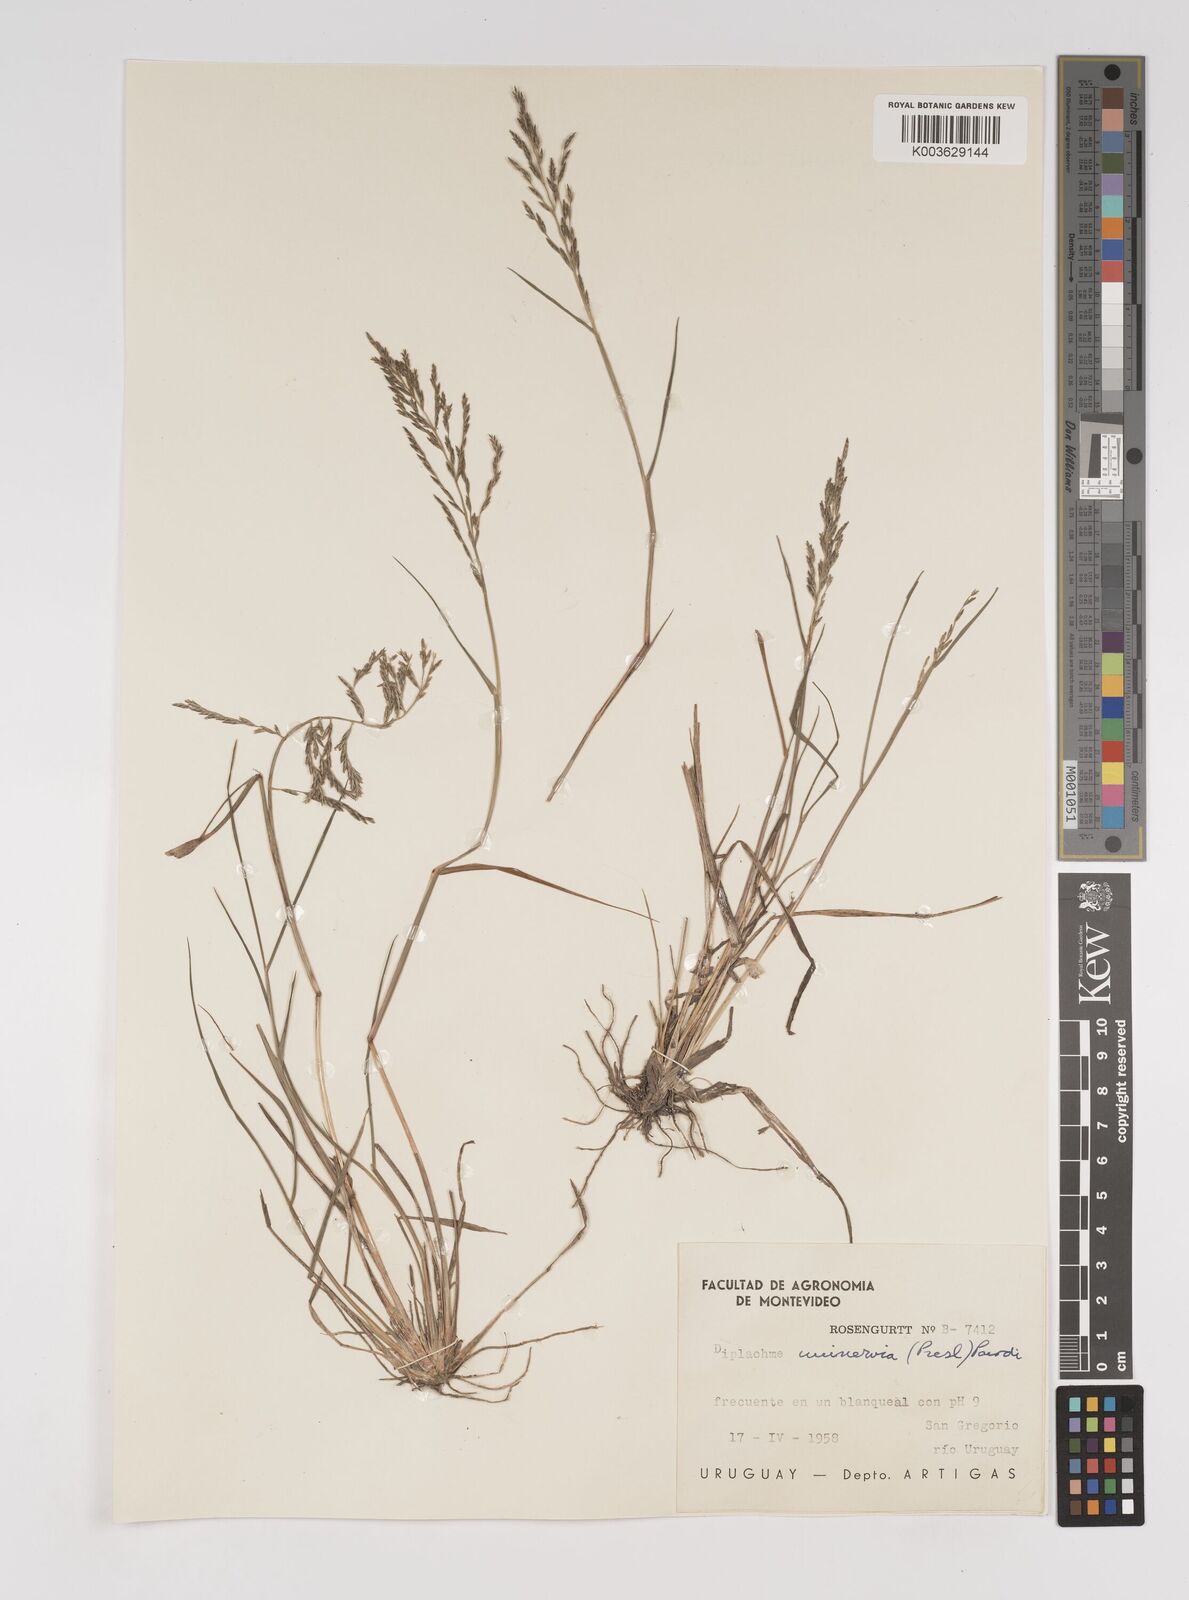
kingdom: Plantae
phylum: Tracheophyta
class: Liliopsida
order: Poales
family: Poaceae
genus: Diplachne
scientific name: Diplachne fusca
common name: Brown beetle grass
